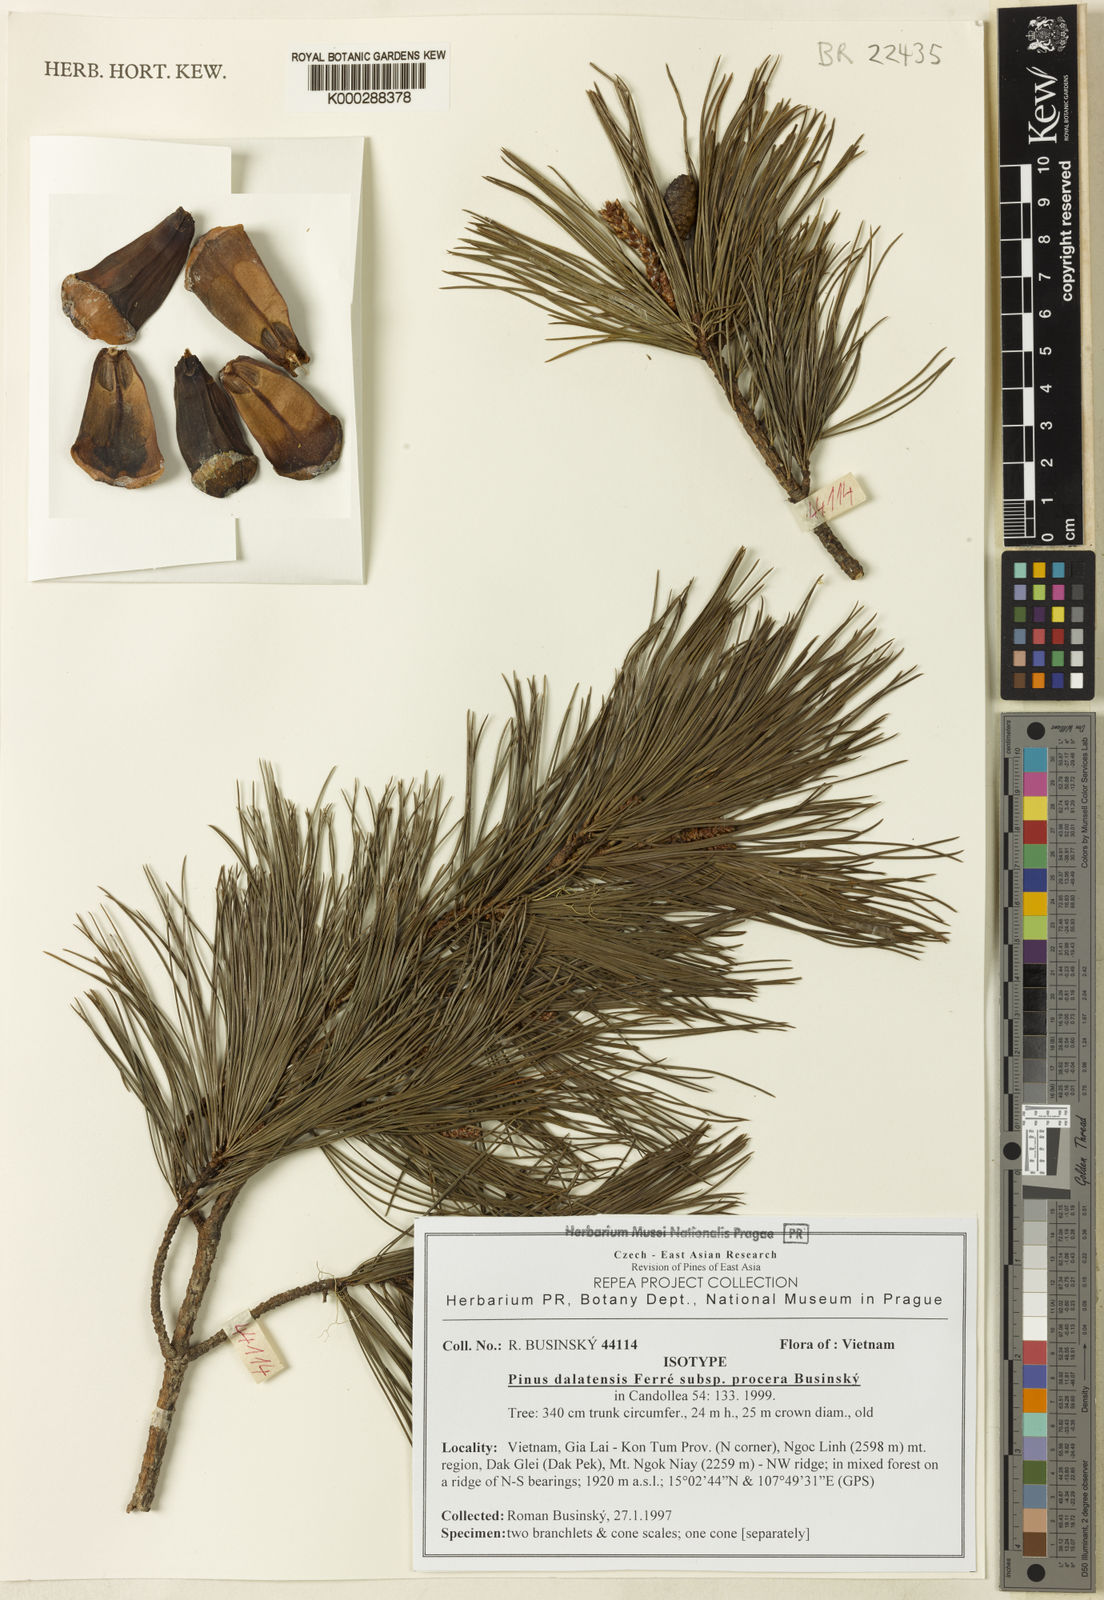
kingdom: Plantae
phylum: Tracheophyta
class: Pinopsida
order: Pinales
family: Pinaceae
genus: Pinus
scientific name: Pinus
